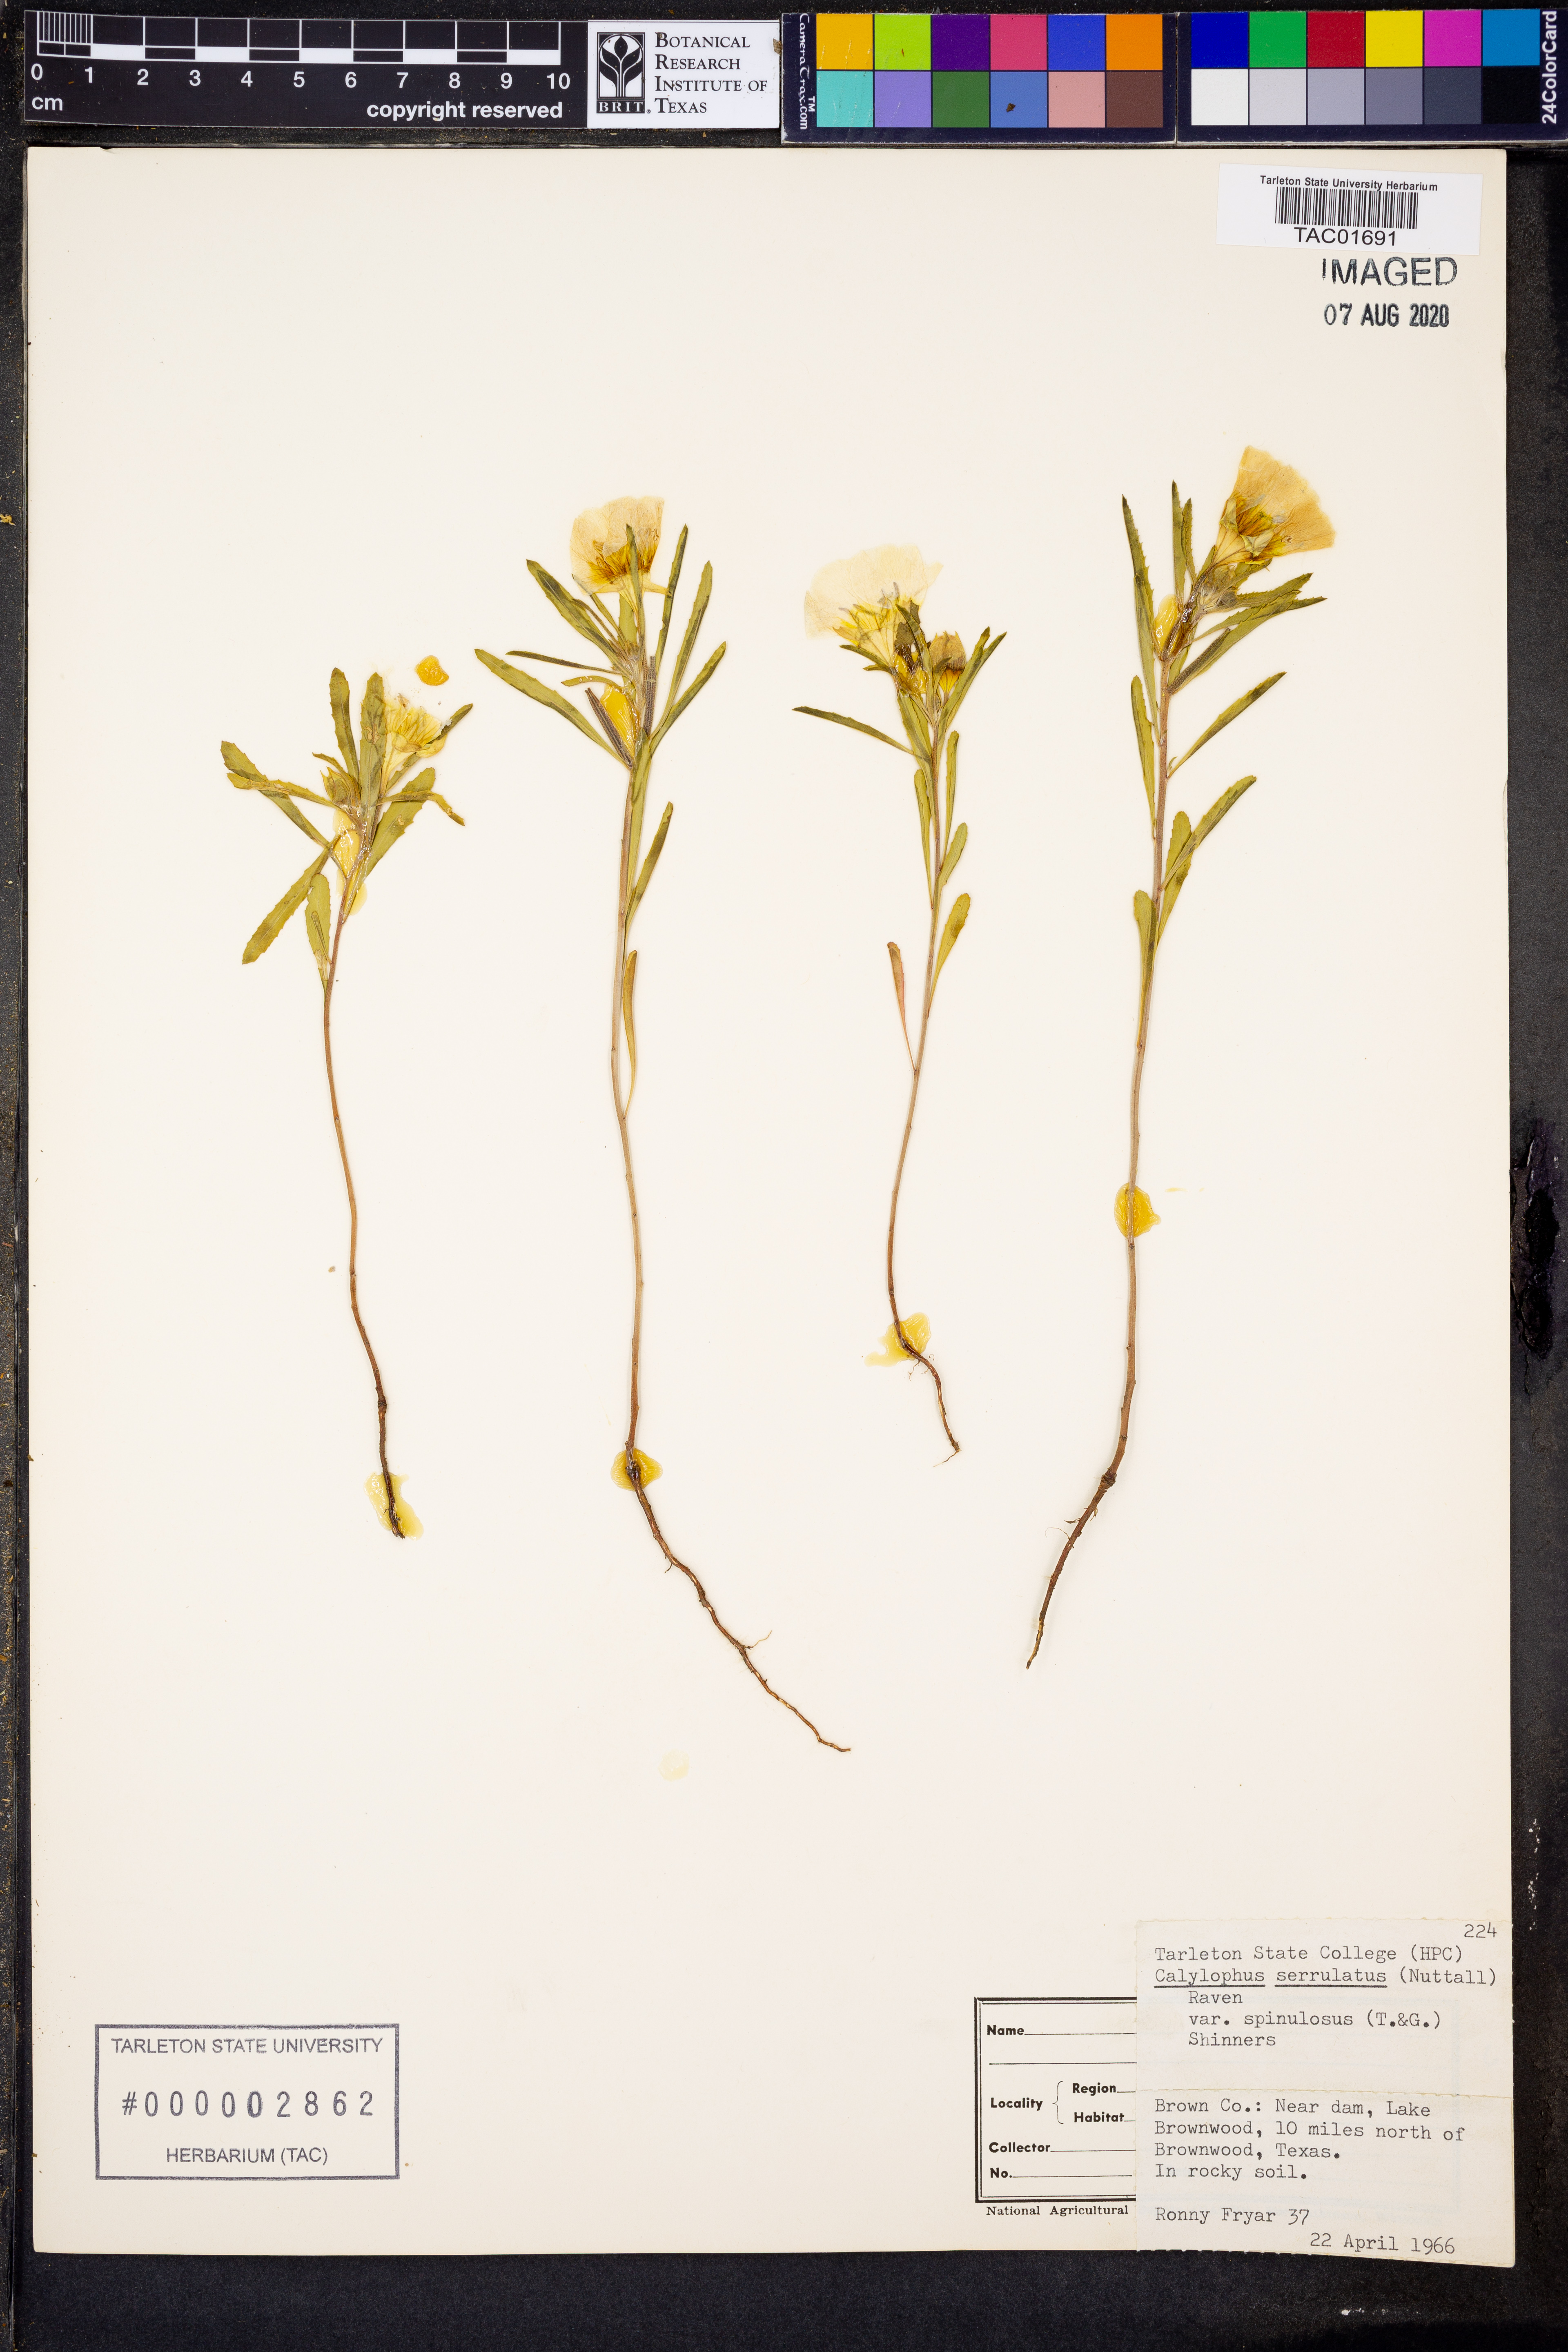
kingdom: Plantae
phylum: Tracheophyta
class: Magnoliopsida
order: Myrtales
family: Onagraceae
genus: Oenothera
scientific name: Oenothera serrulata
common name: Half-shrub calylophus
